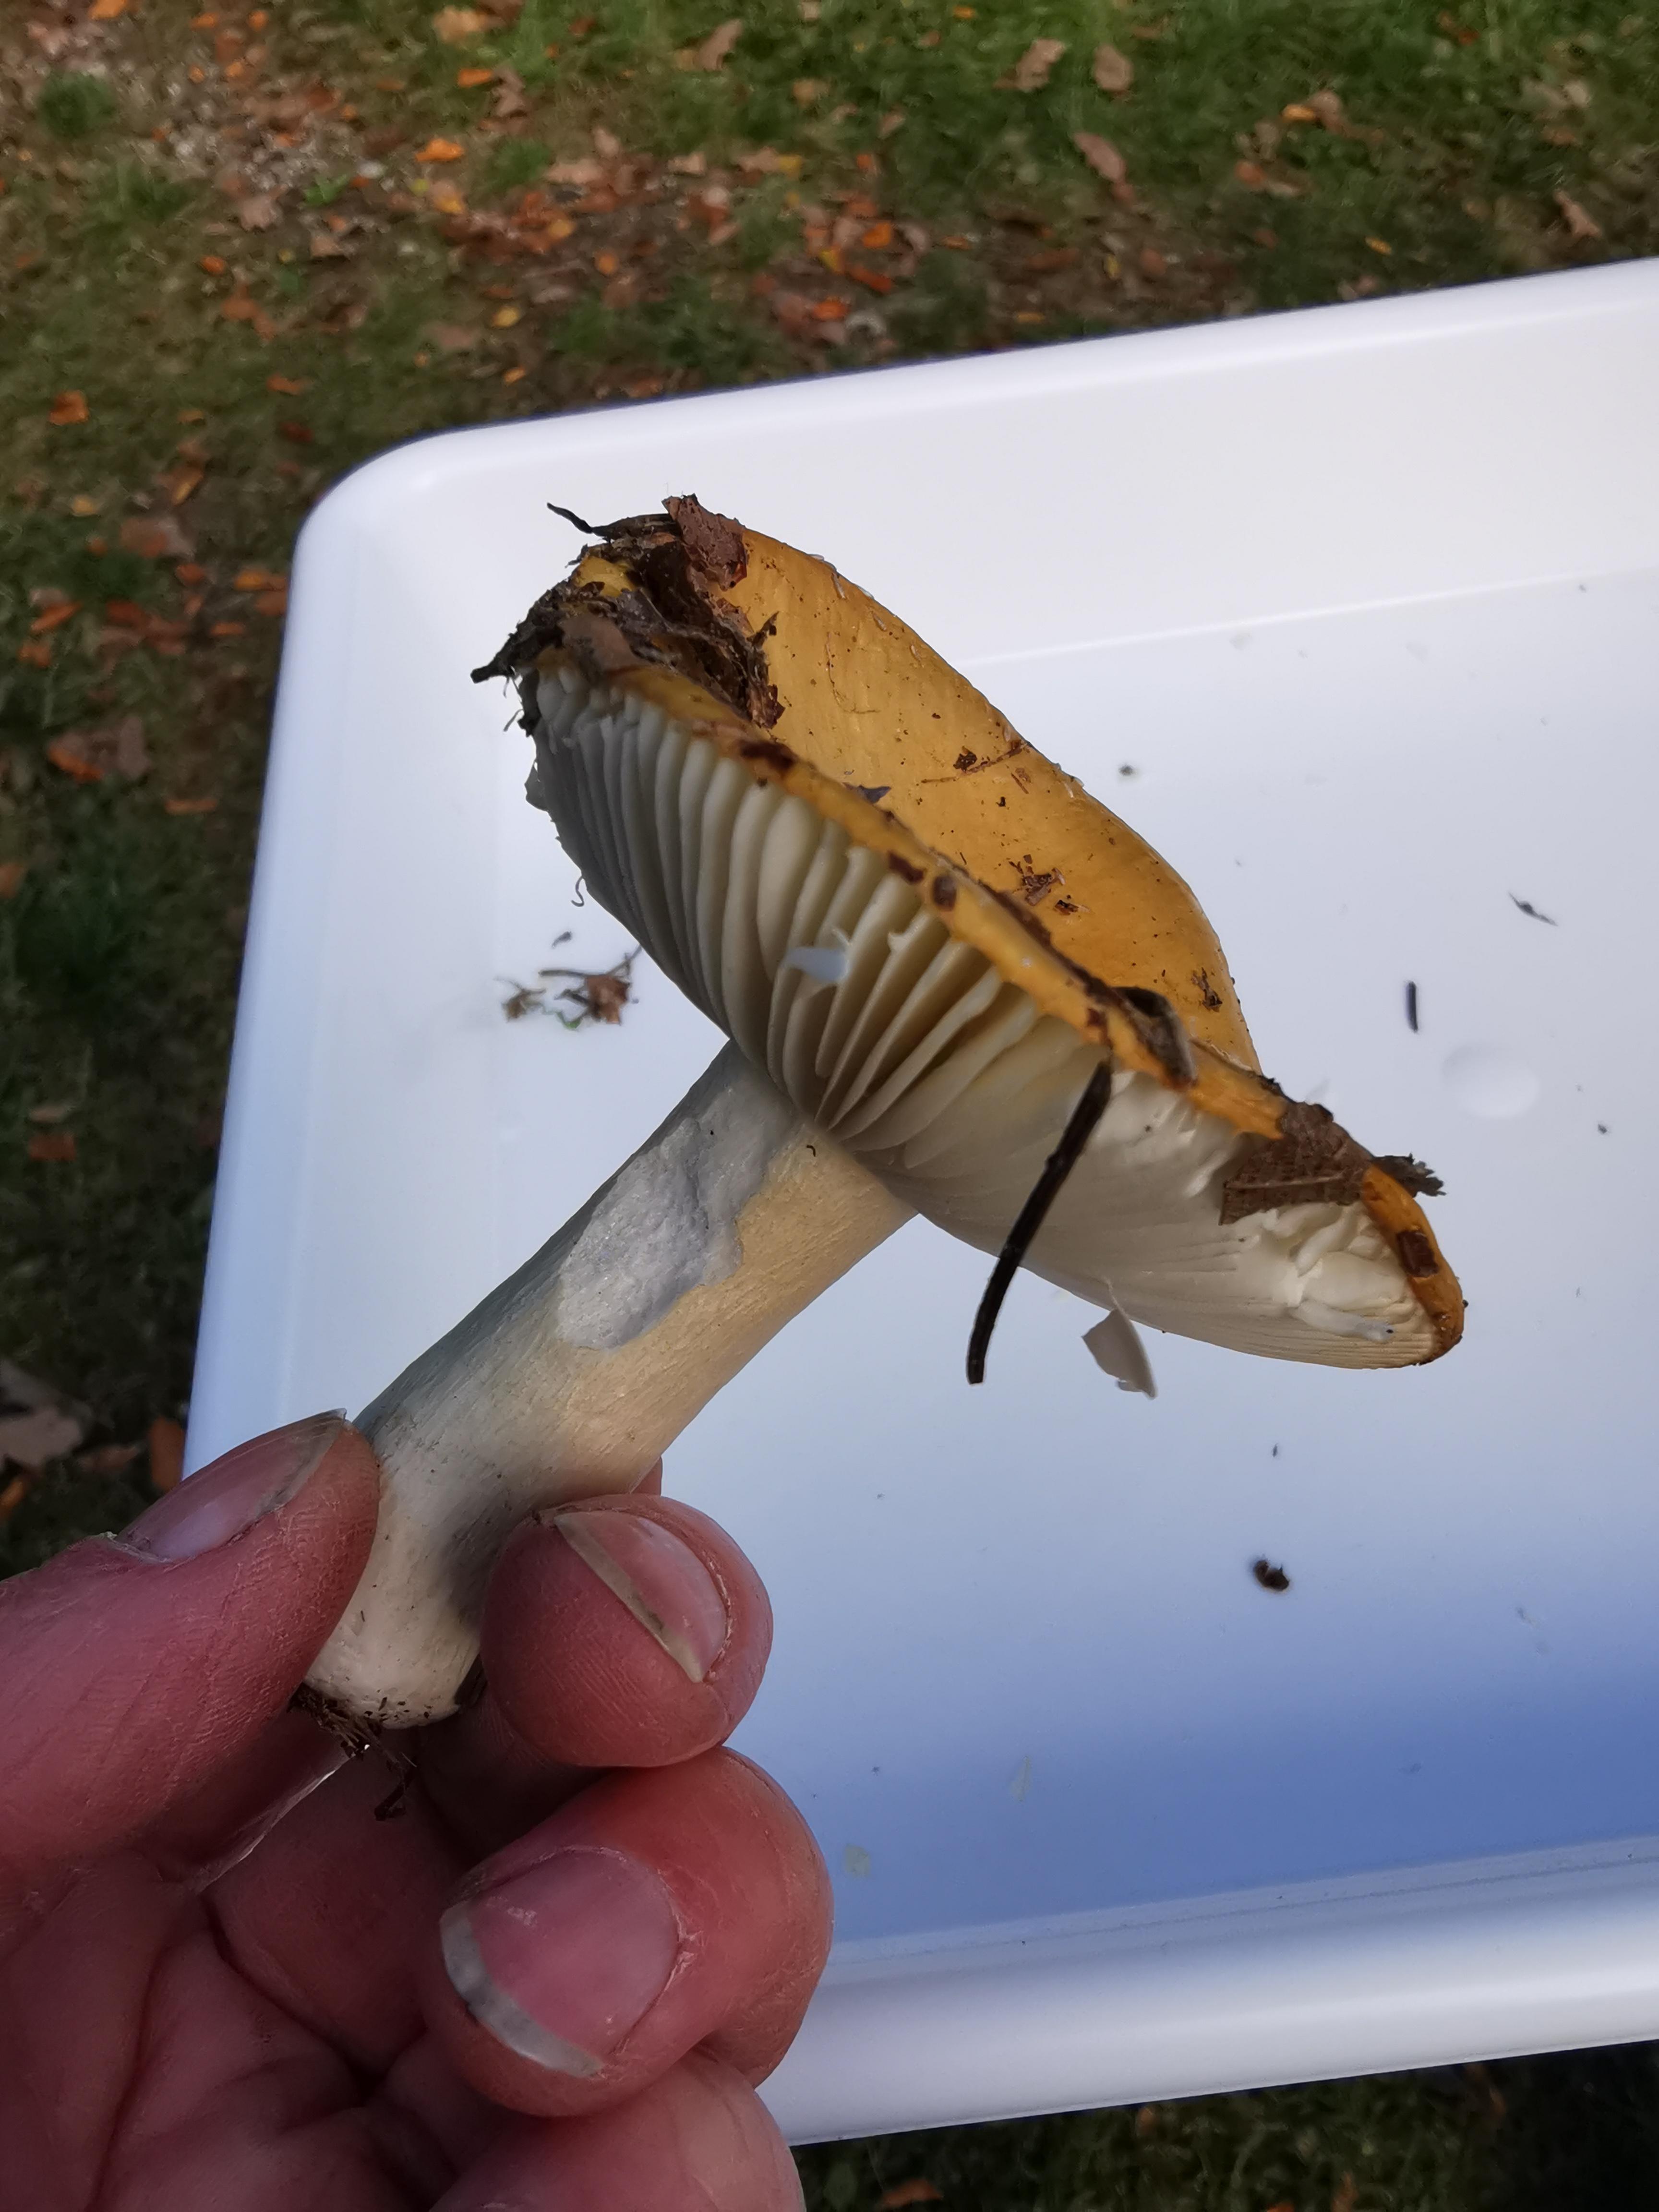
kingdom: Fungi
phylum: Basidiomycota
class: Agaricomycetes
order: Russulales
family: Russulaceae
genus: Russula
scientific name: Russula ochroleuca
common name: okkergul skørhat
